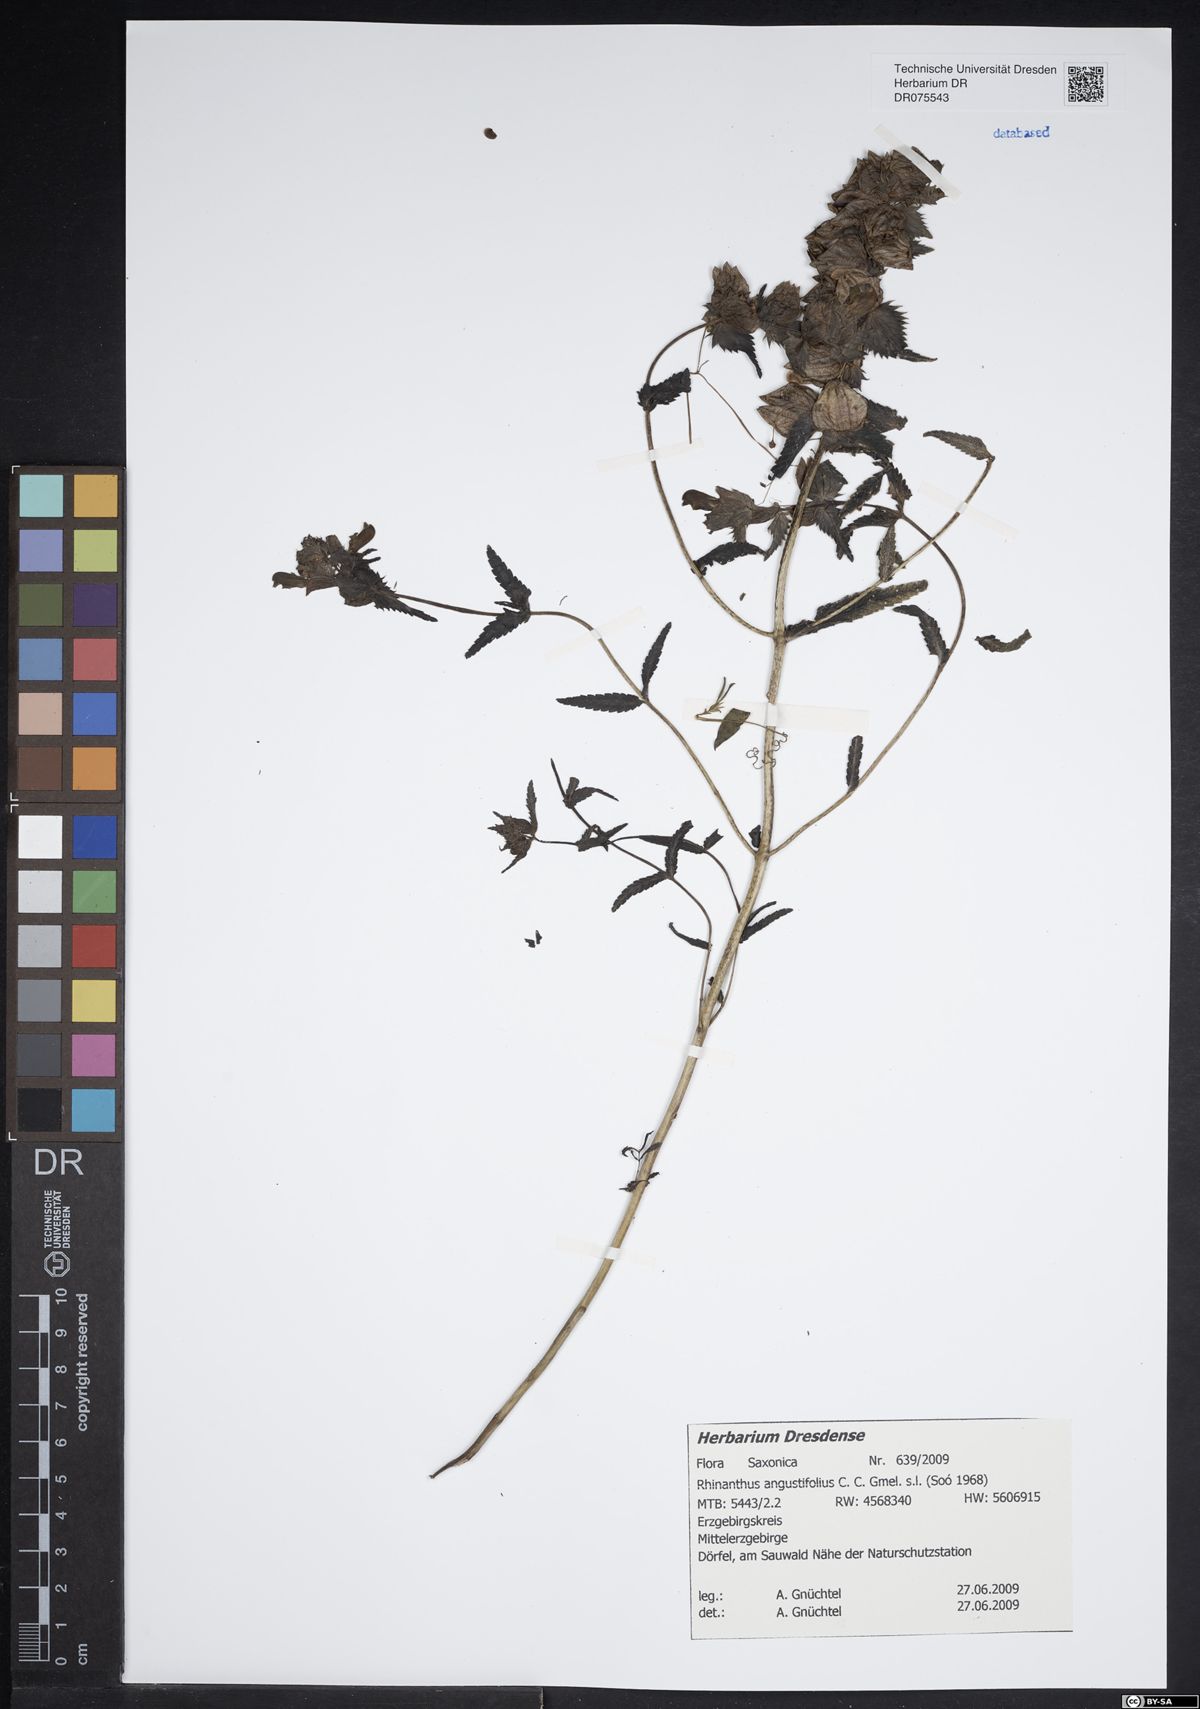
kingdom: Plantae
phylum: Tracheophyta
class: Magnoliopsida
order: Lamiales
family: Orobanchaceae
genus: Rhinanthus
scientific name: Rhinanthus serotinus
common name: Late-flowering yellow rattle
